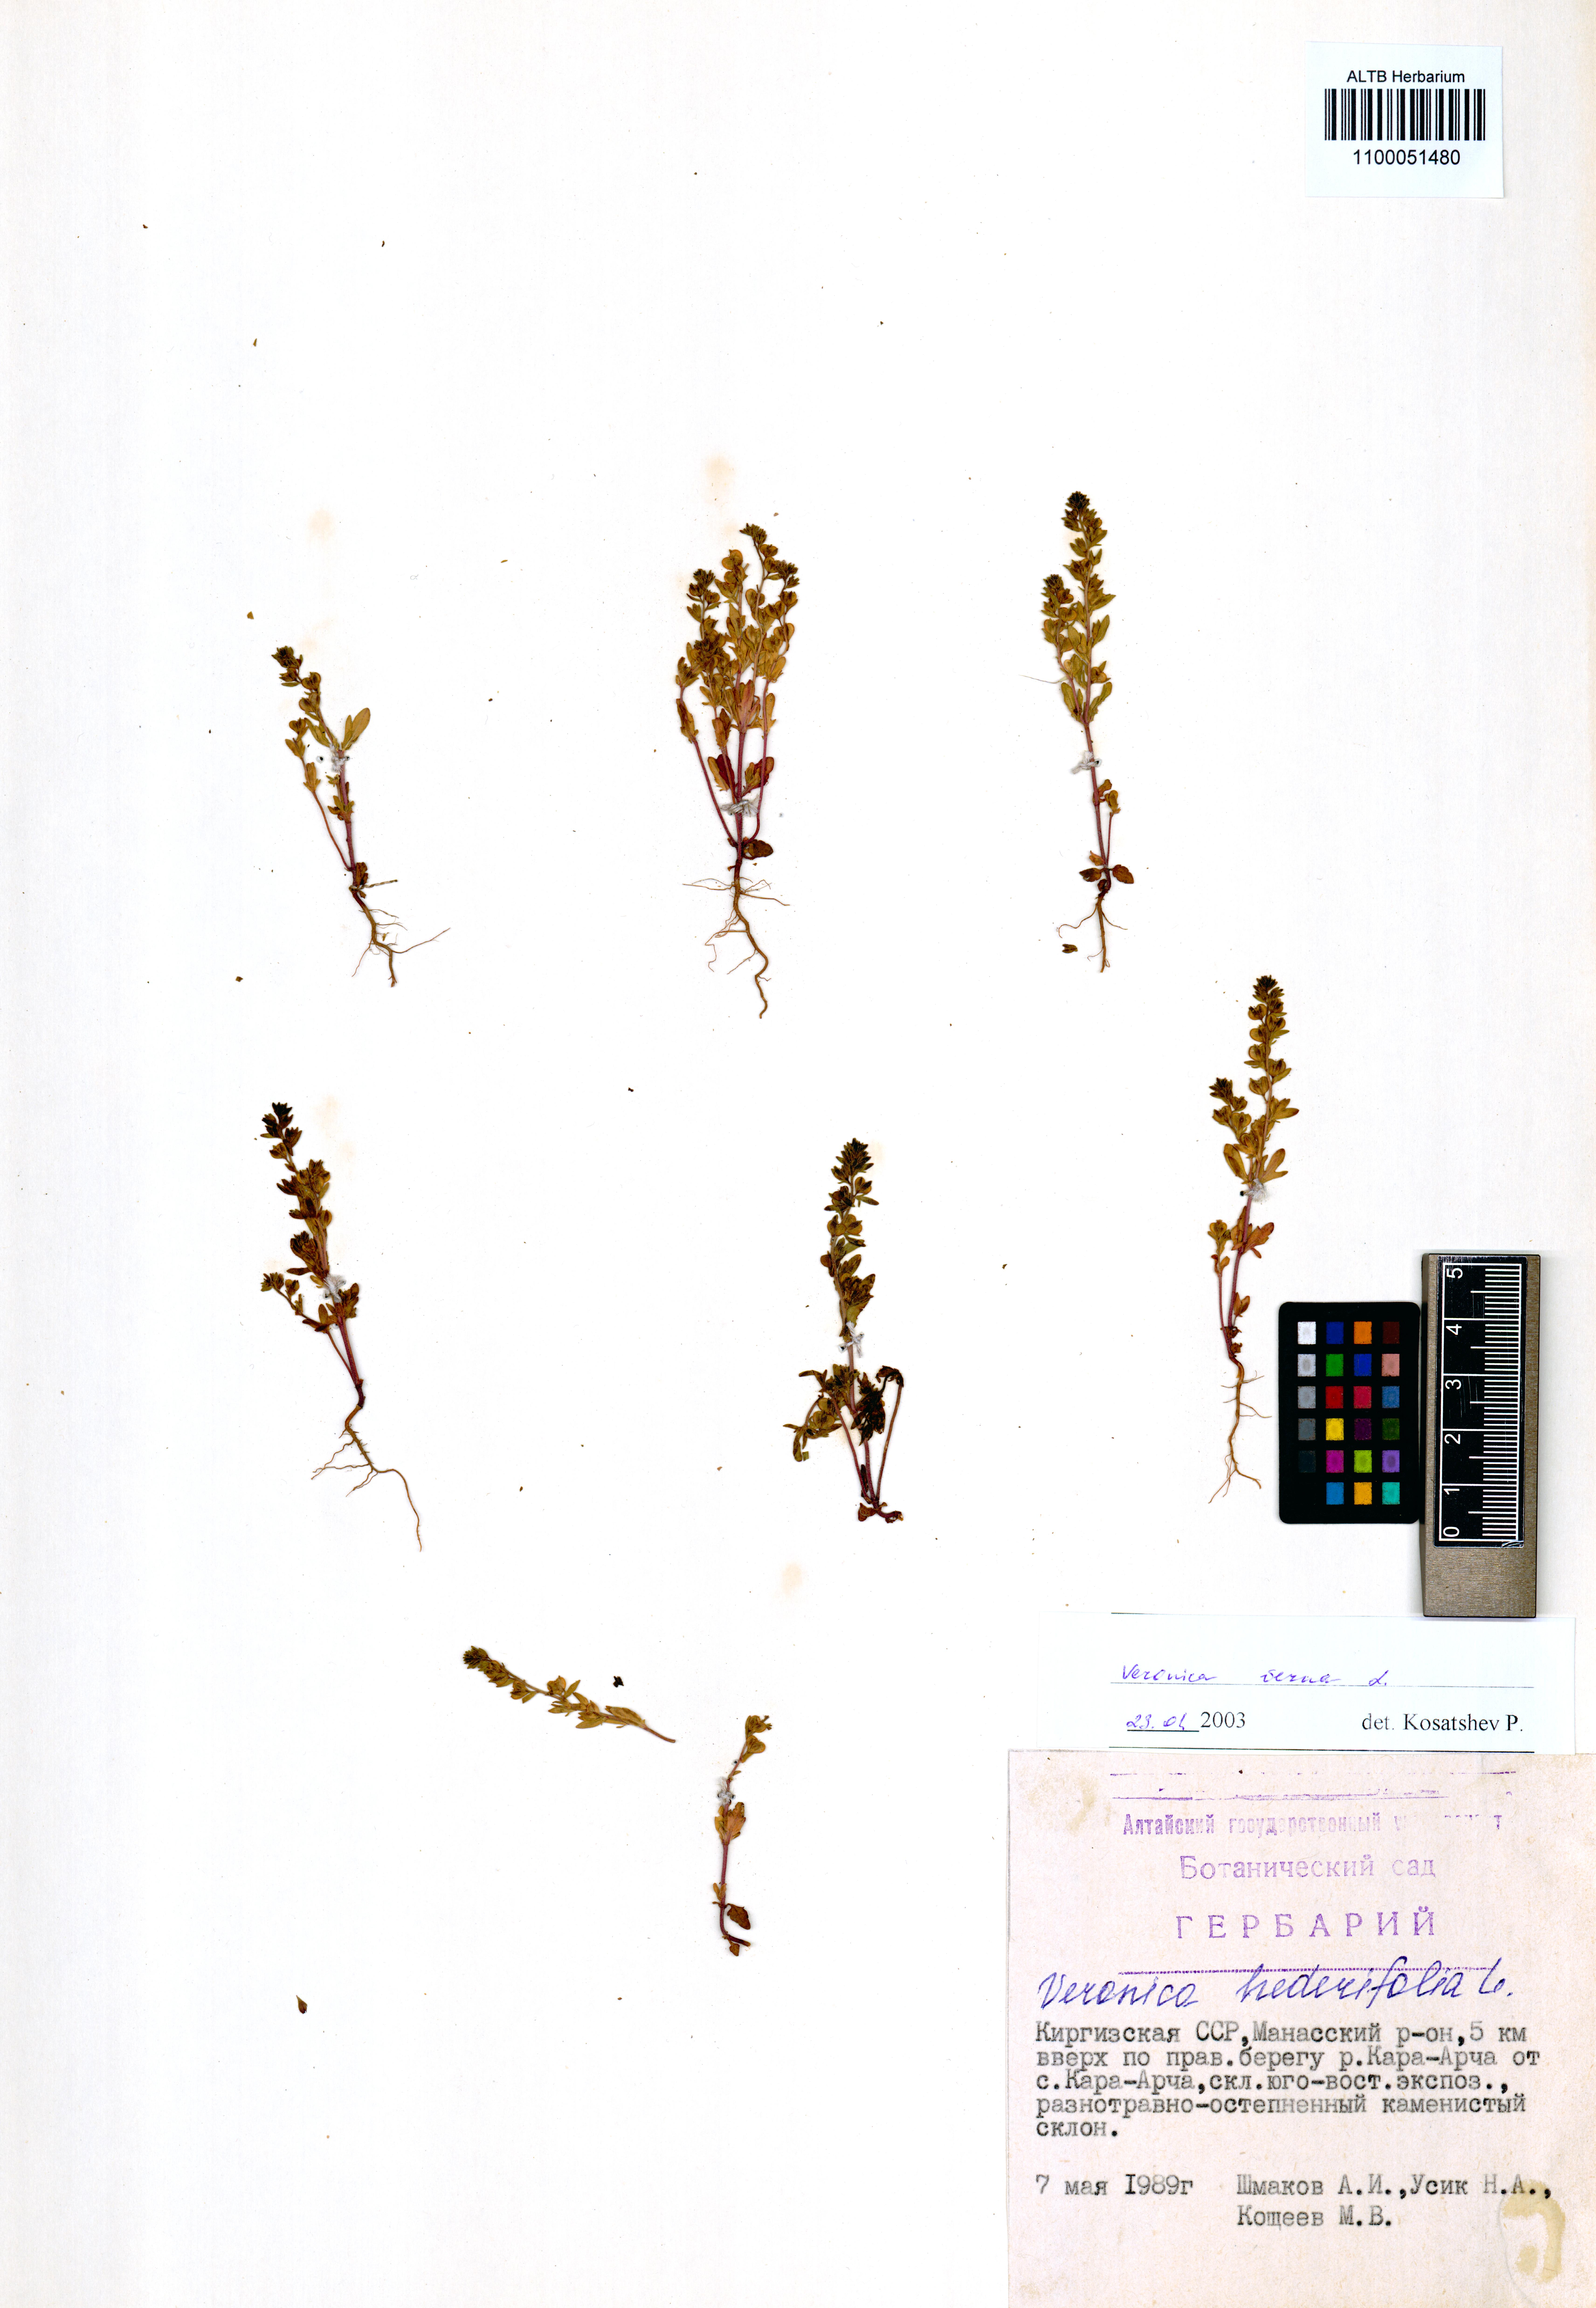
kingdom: Plantae
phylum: Tracheophyta
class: Magnoliopsida
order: Lamiales
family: Plantaginaceae
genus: Veronica
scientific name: Veronica verna
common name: Spring speedwell
